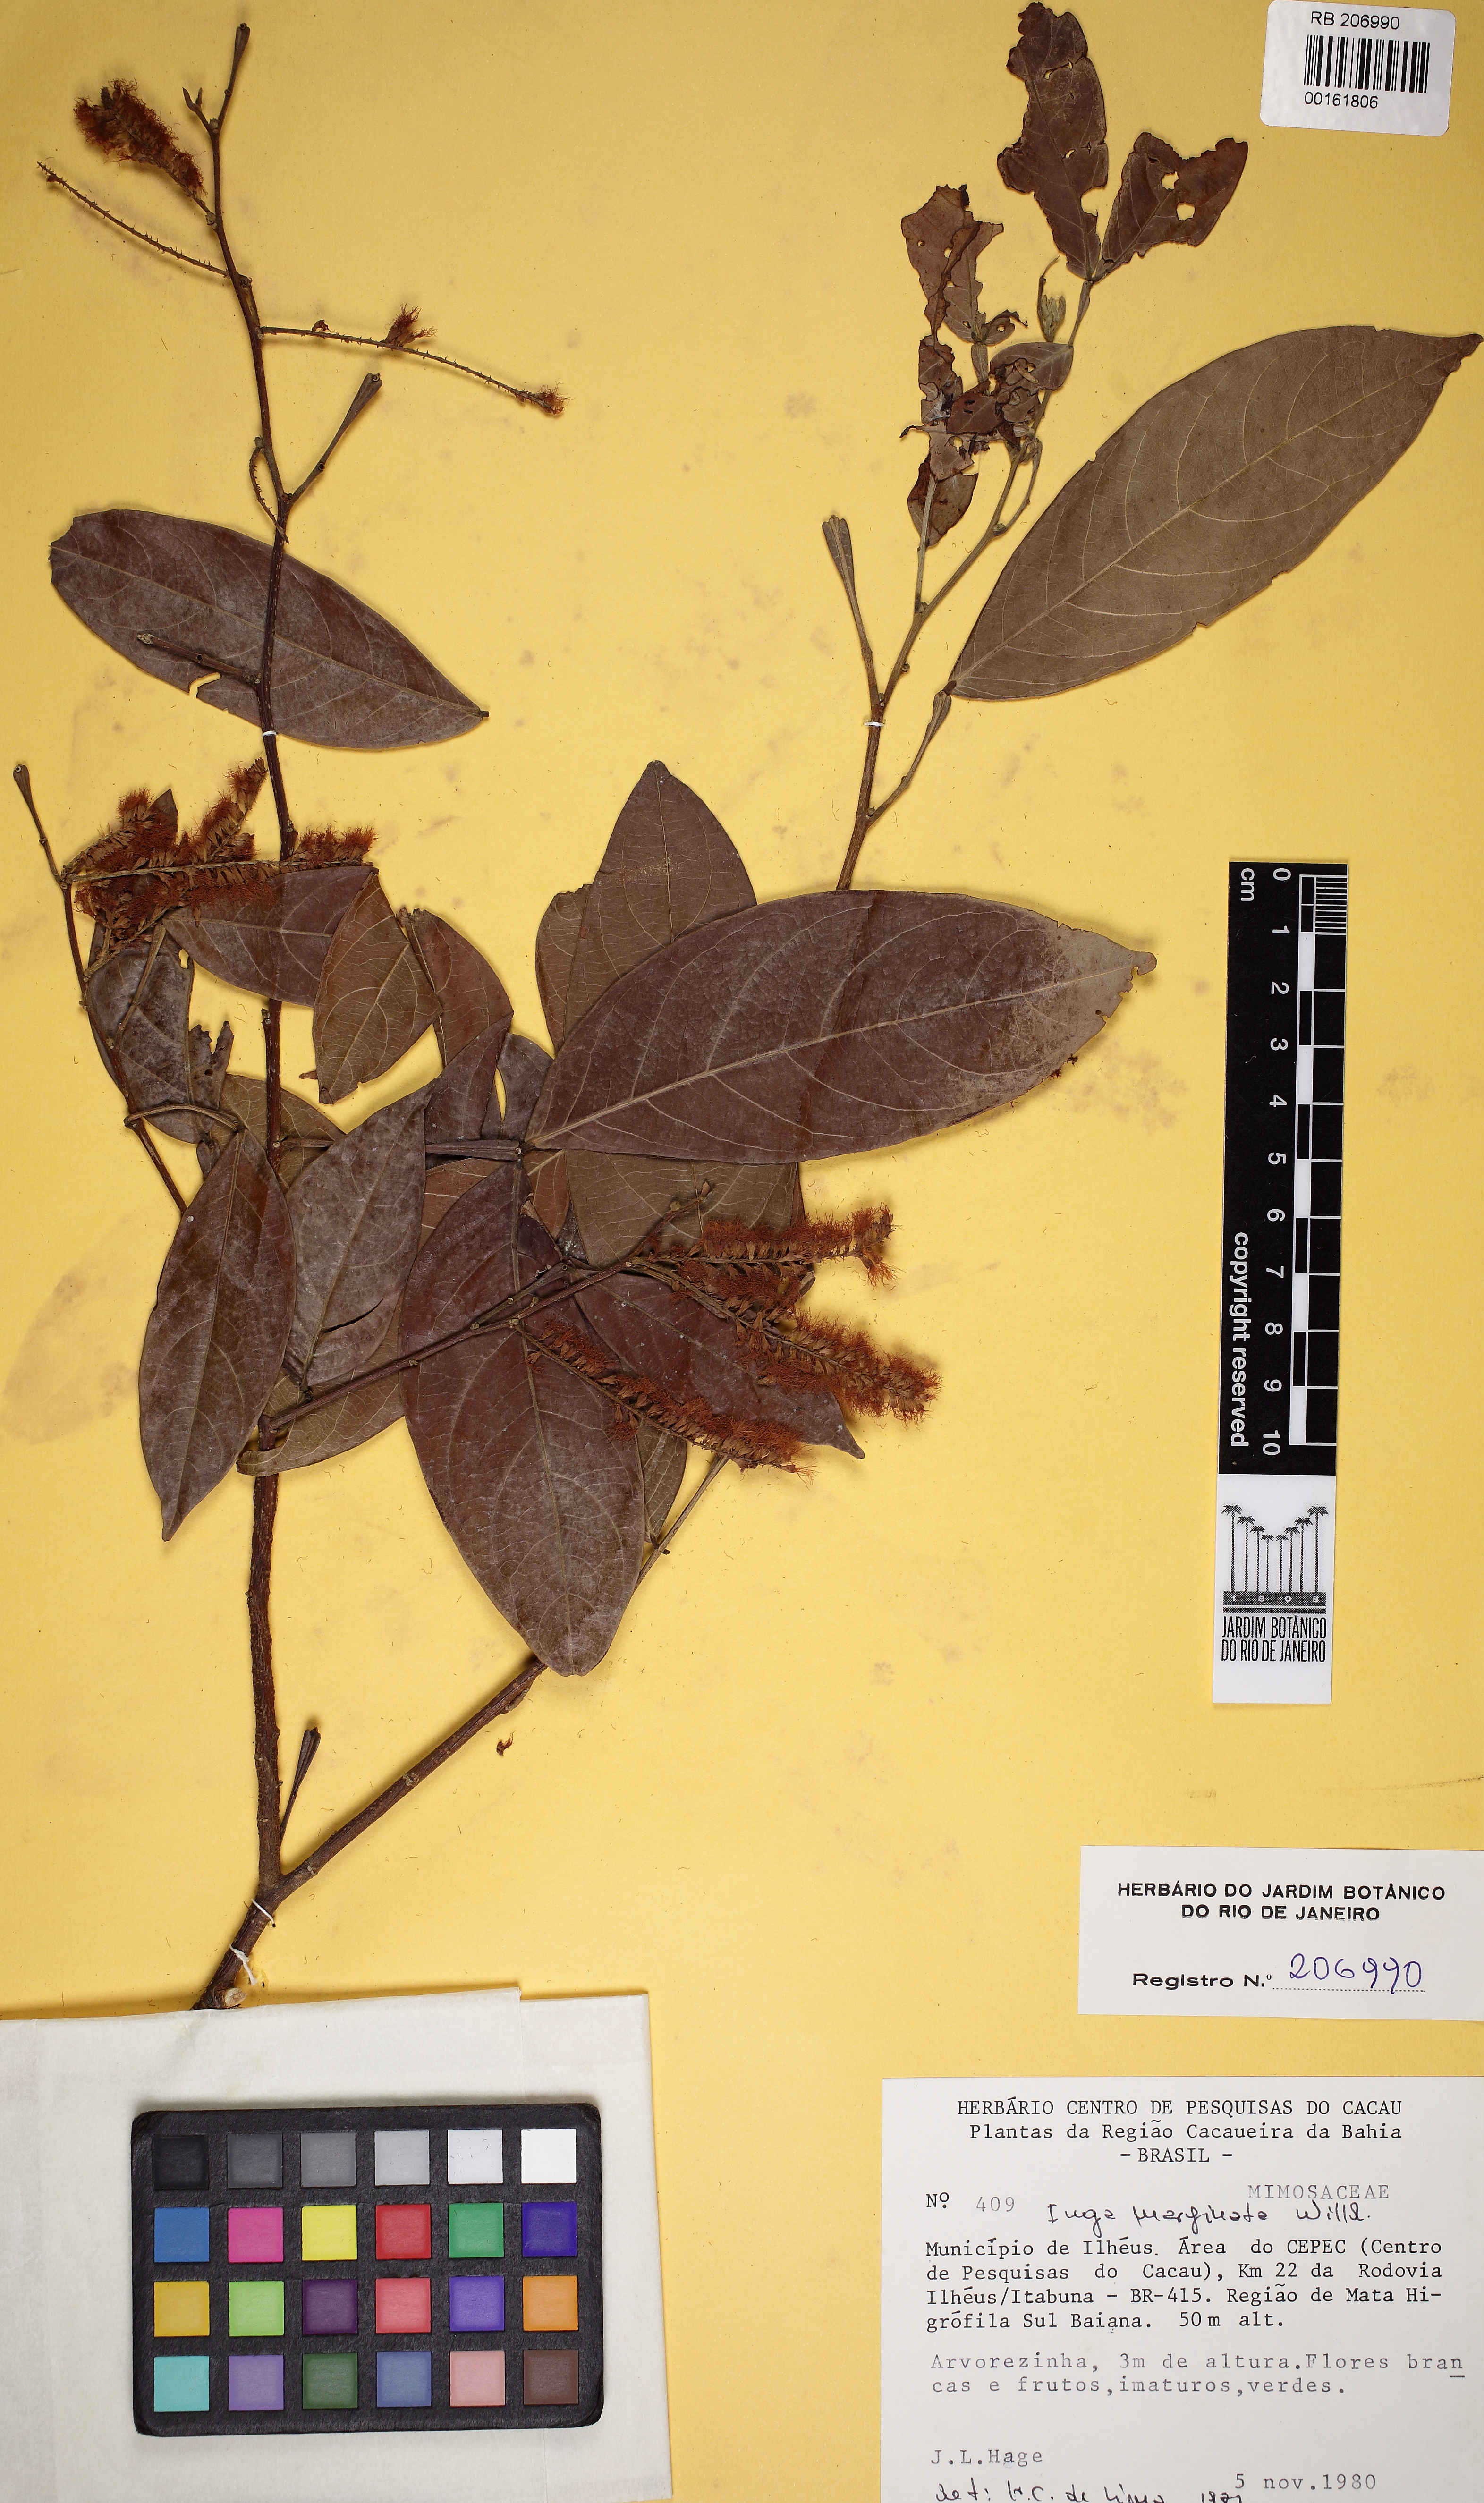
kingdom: Plantae
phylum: Tracheophyta
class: Magnoliopsida
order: Fabales
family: Fabaceae
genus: Inga
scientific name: Inga marginata
